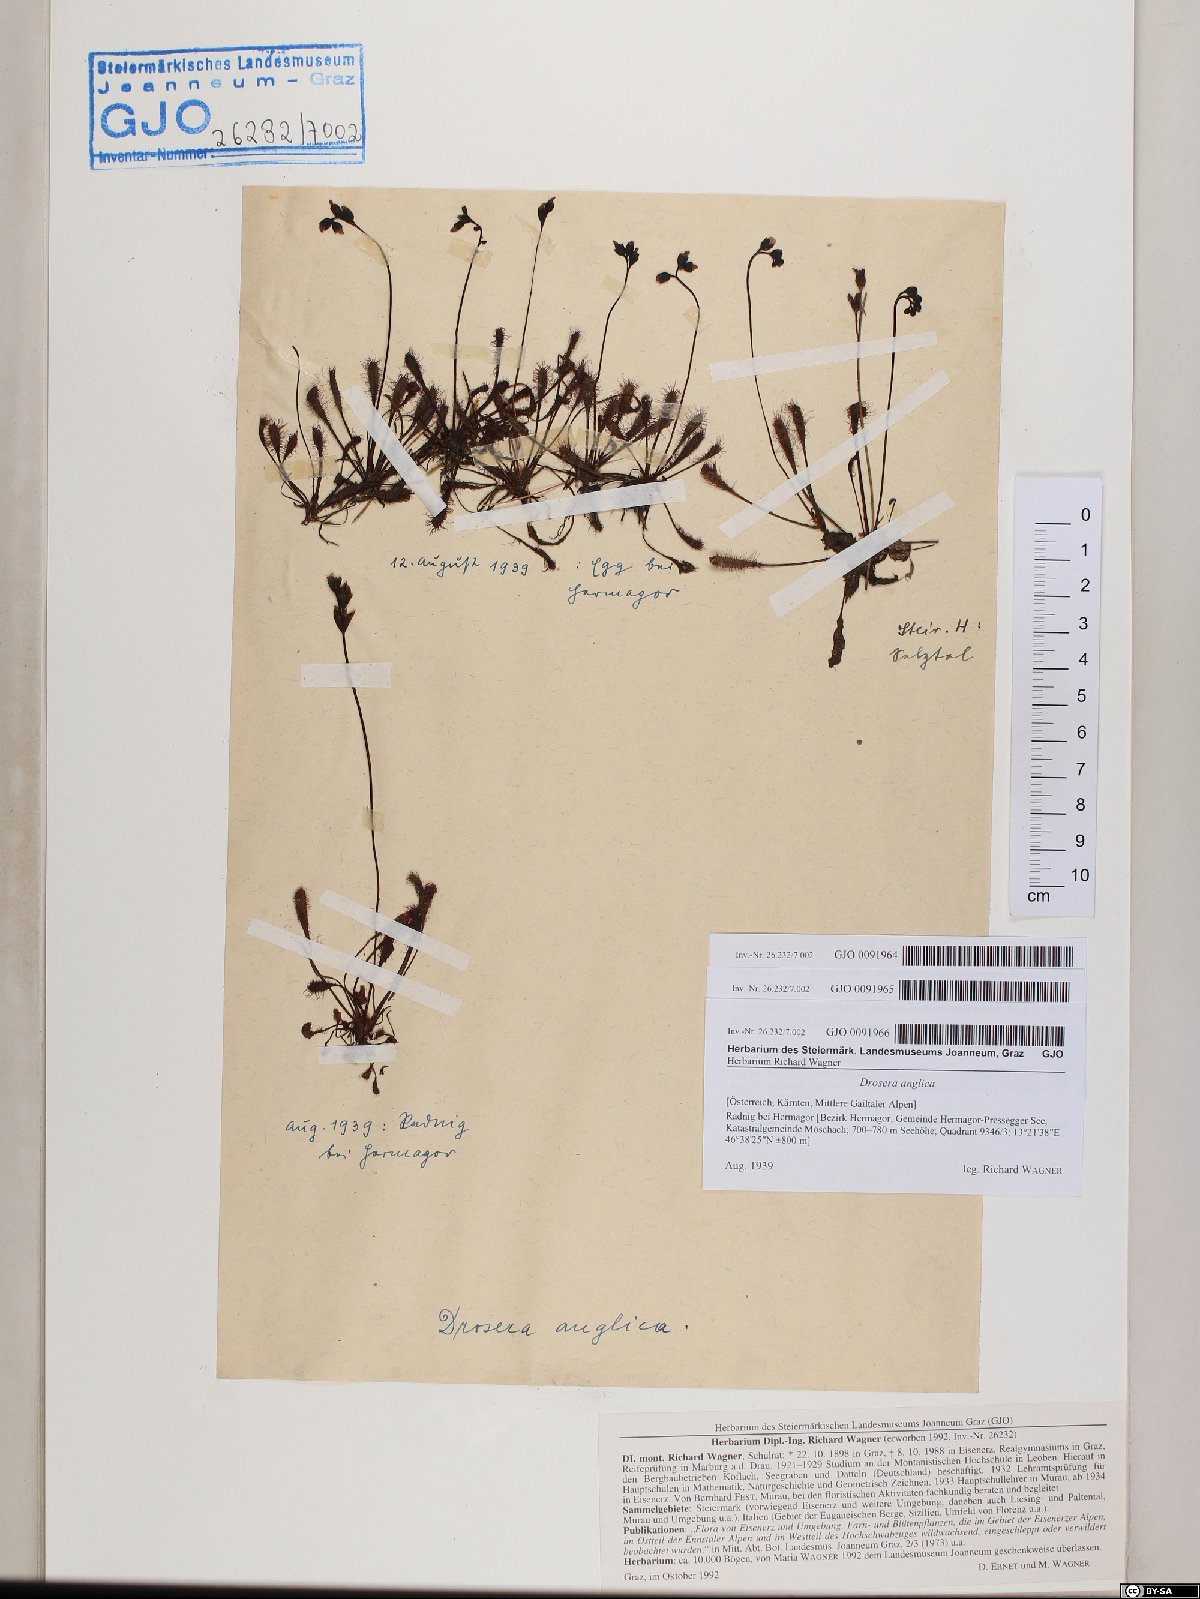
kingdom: Plantae
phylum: Tracheophyta
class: Magnoliopsida
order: Caryophyllales
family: Droseraceae
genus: Drosera
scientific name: Drosera anglica
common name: Great sundew
